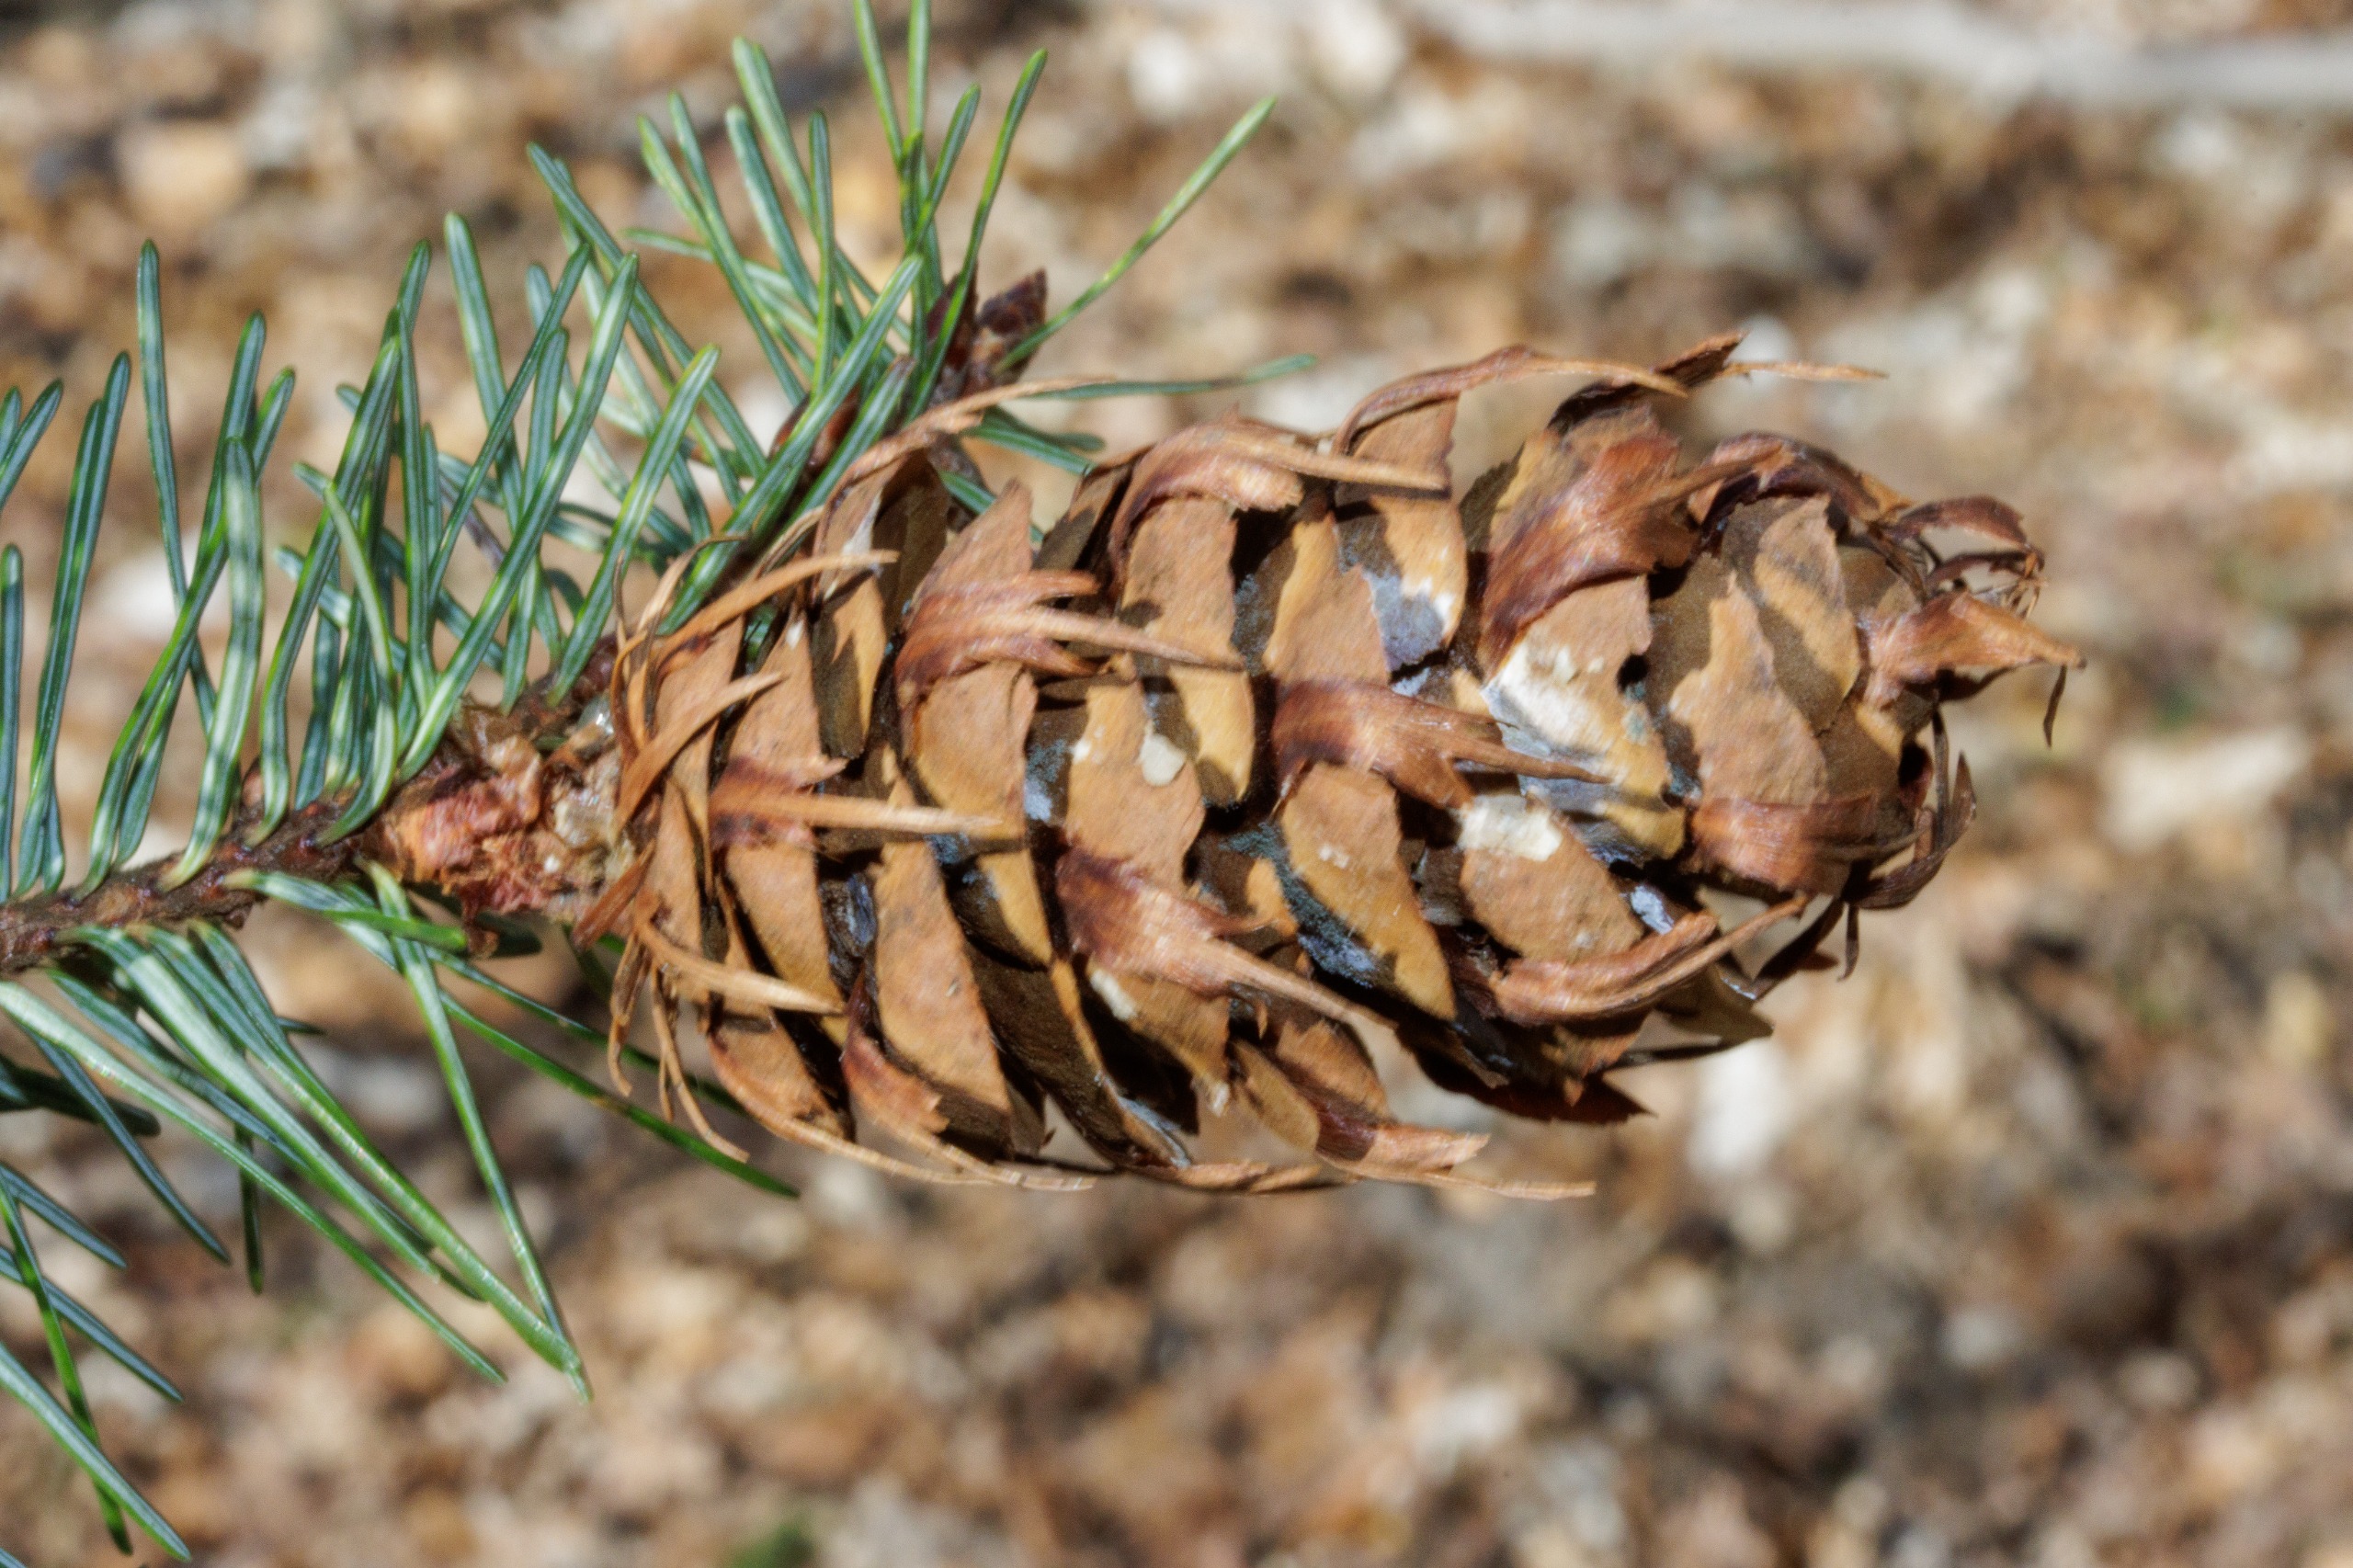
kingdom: Plantae
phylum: Tracheophyta
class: Pinopsida
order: Pinales
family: Pinaceae
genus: Pseudotsuga
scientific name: Pseudotsuga menziesii
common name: Douglasgran
